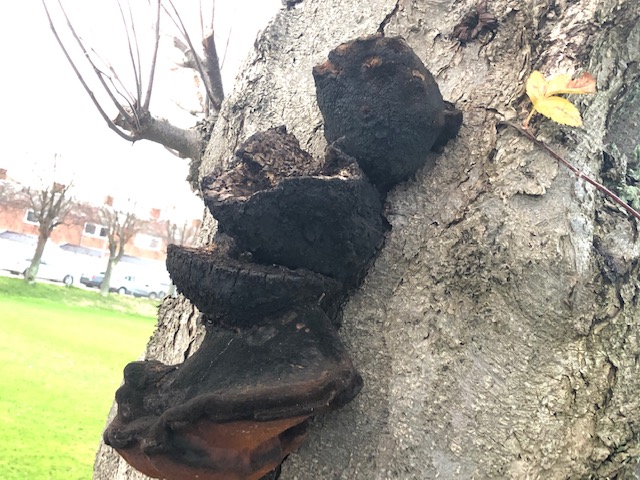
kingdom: Fungi
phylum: Basidiomycota
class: Agaricomycetes
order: Hymenochaetales
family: Hymenochaetaceae
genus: Inonotus
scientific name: Inonotus hispidus
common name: børstehåret spejlporesvamp
